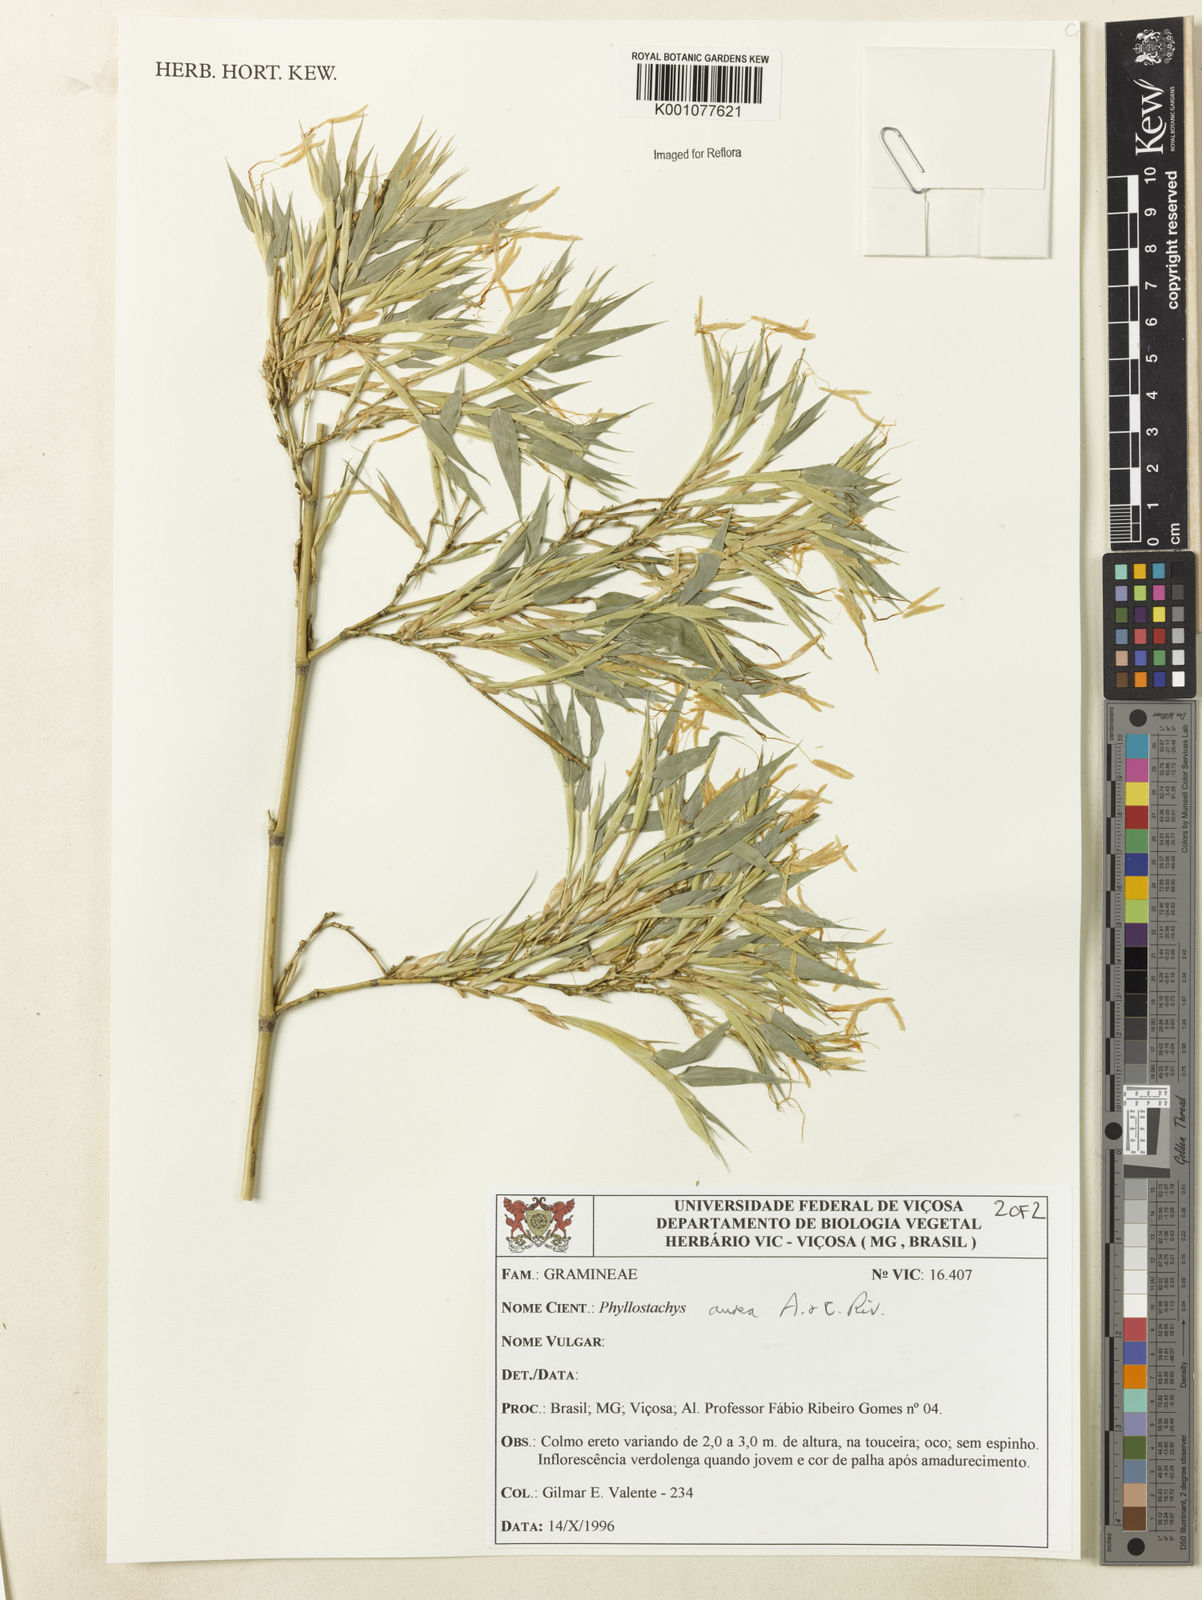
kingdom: Plantae
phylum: Tracheophyta
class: Liliopsida
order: Poales
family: Poaceae
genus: Phyllostachys
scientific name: Phyllostachys
